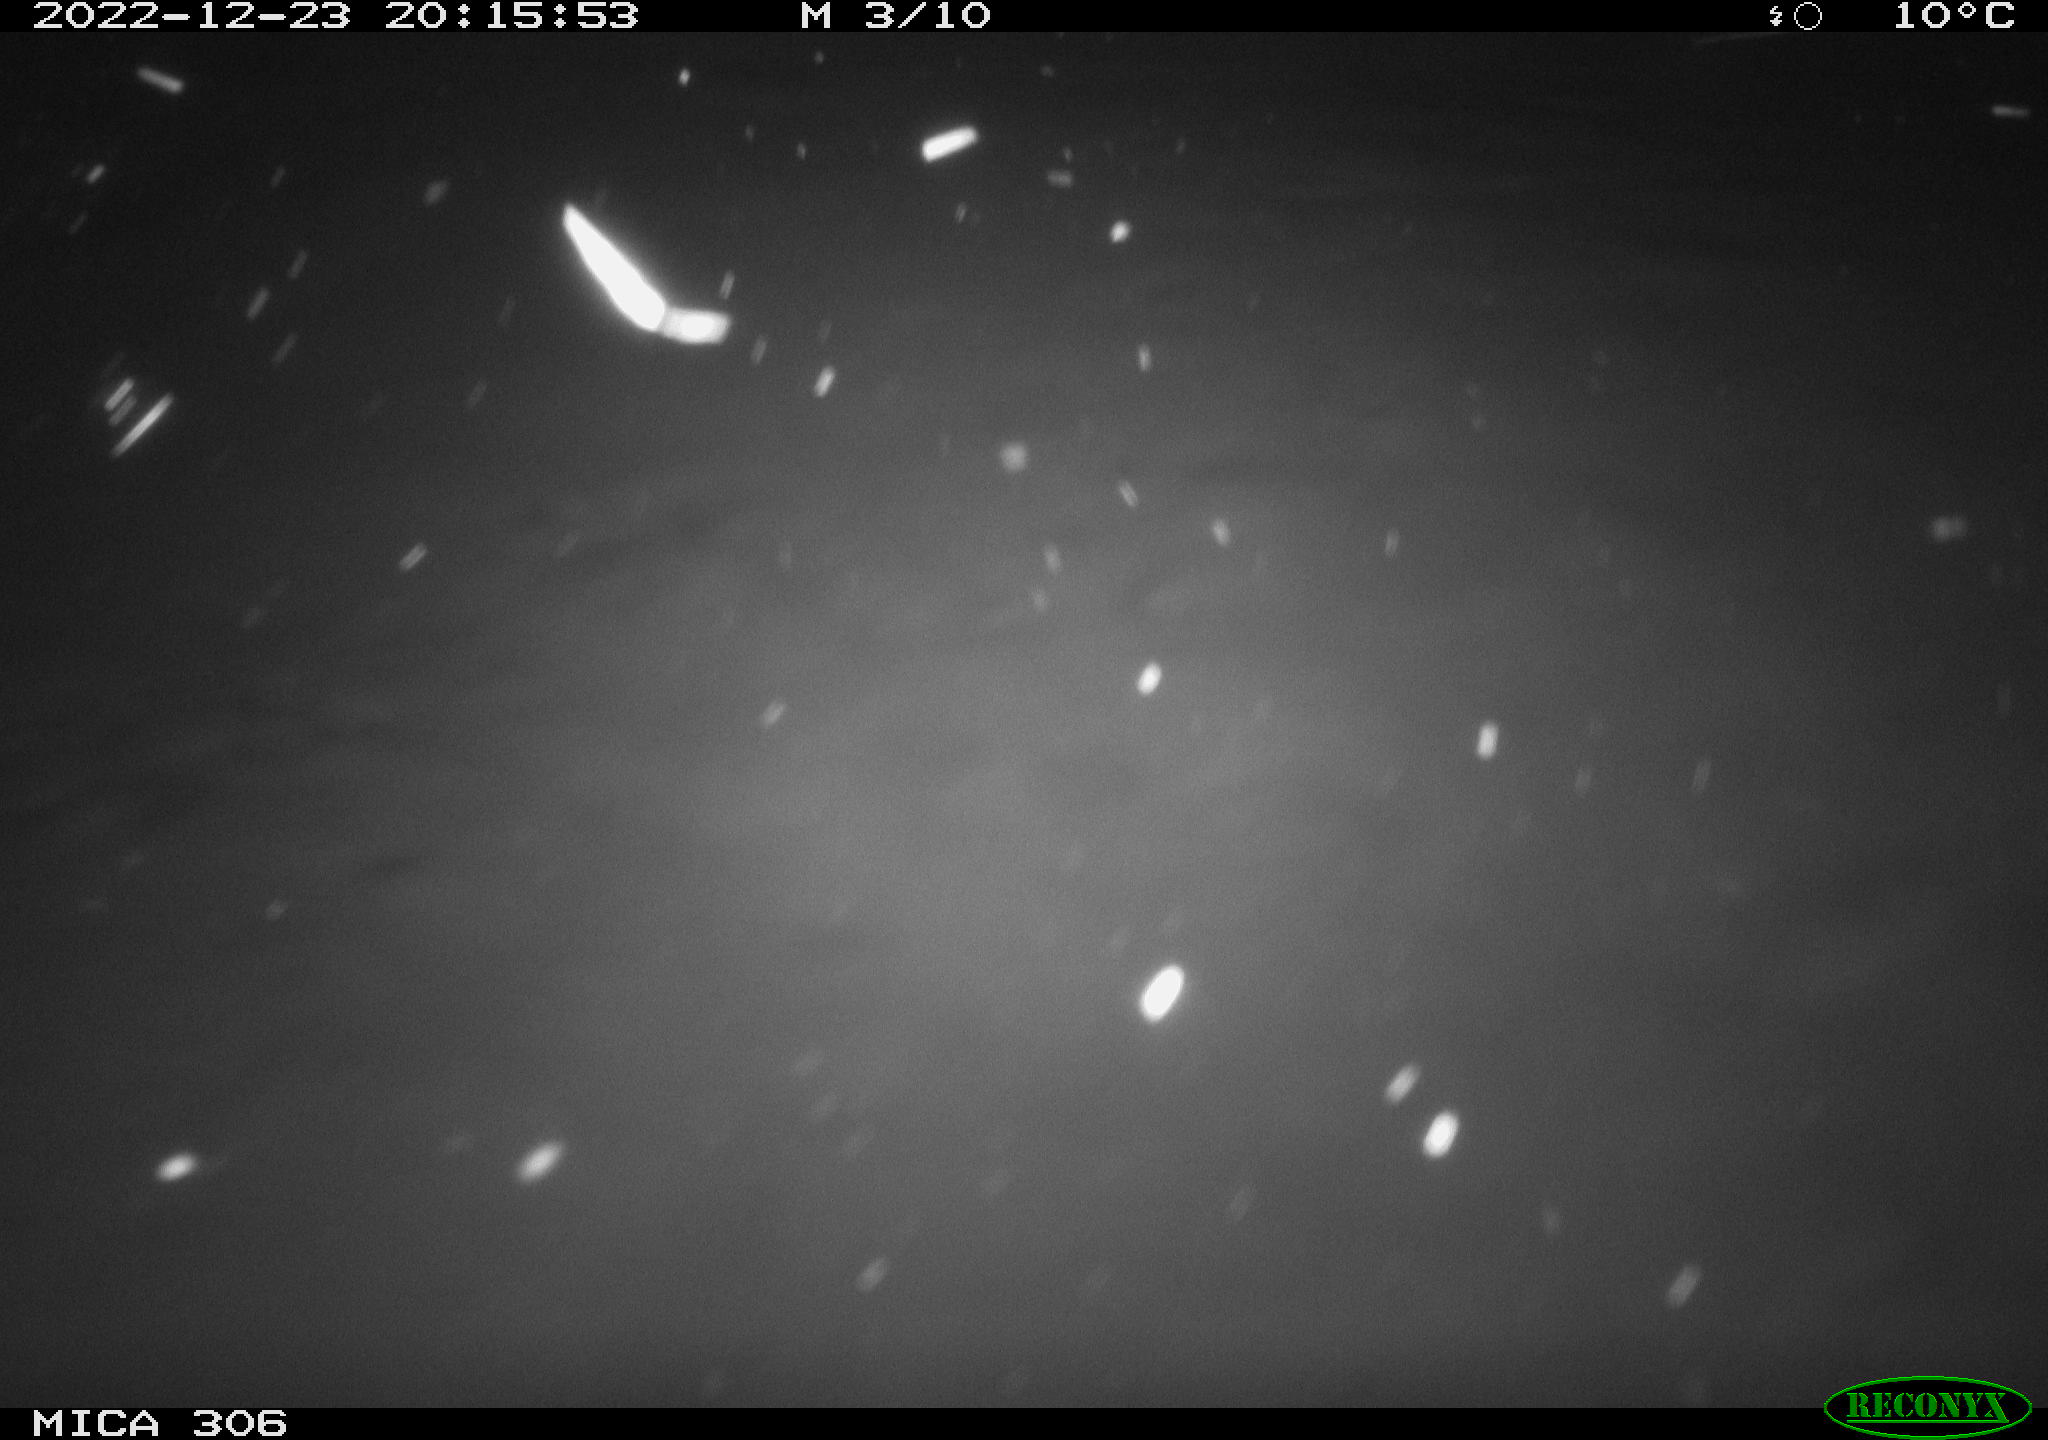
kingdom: Animalia
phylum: Chordata
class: Mammalia
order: Rodentia
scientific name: Rodentia
